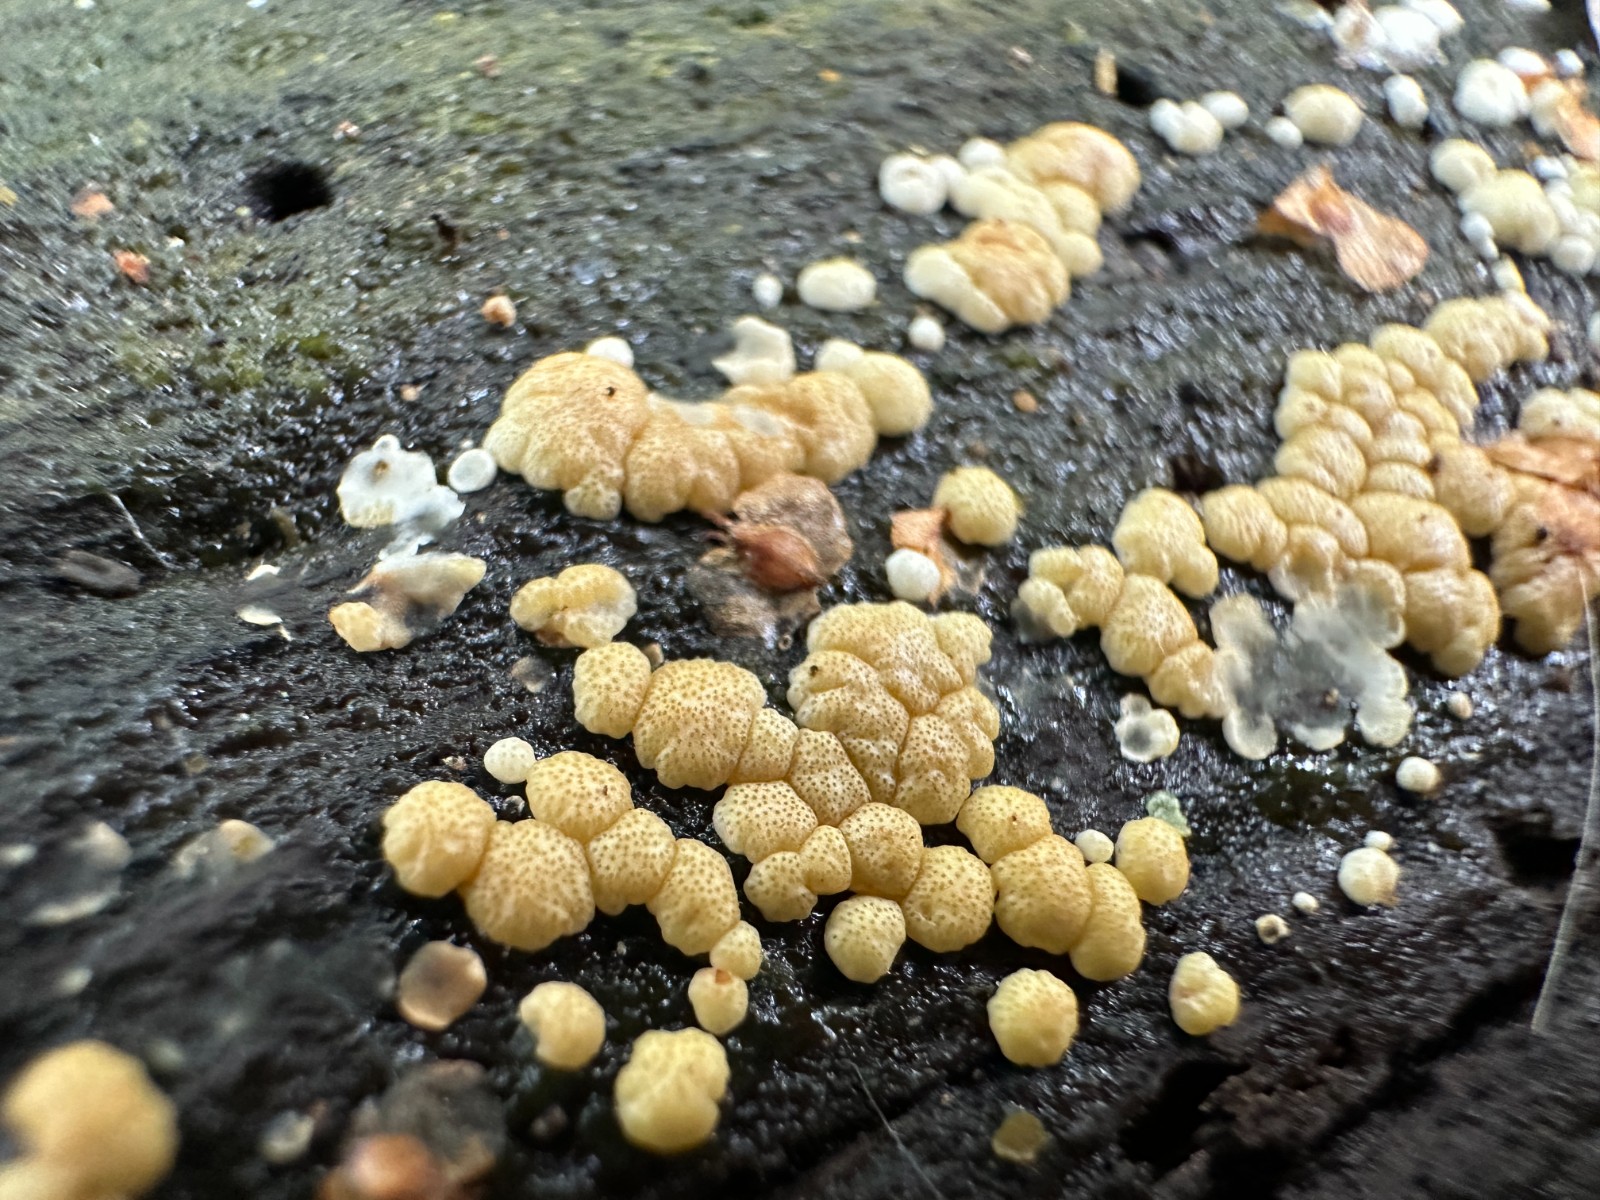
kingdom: Fungi
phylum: Ascomycota
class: Sordariomycetes
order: Hypocreales
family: Hypocreaceae
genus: Trichoderma
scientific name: Trichoderma
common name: kødkerne
